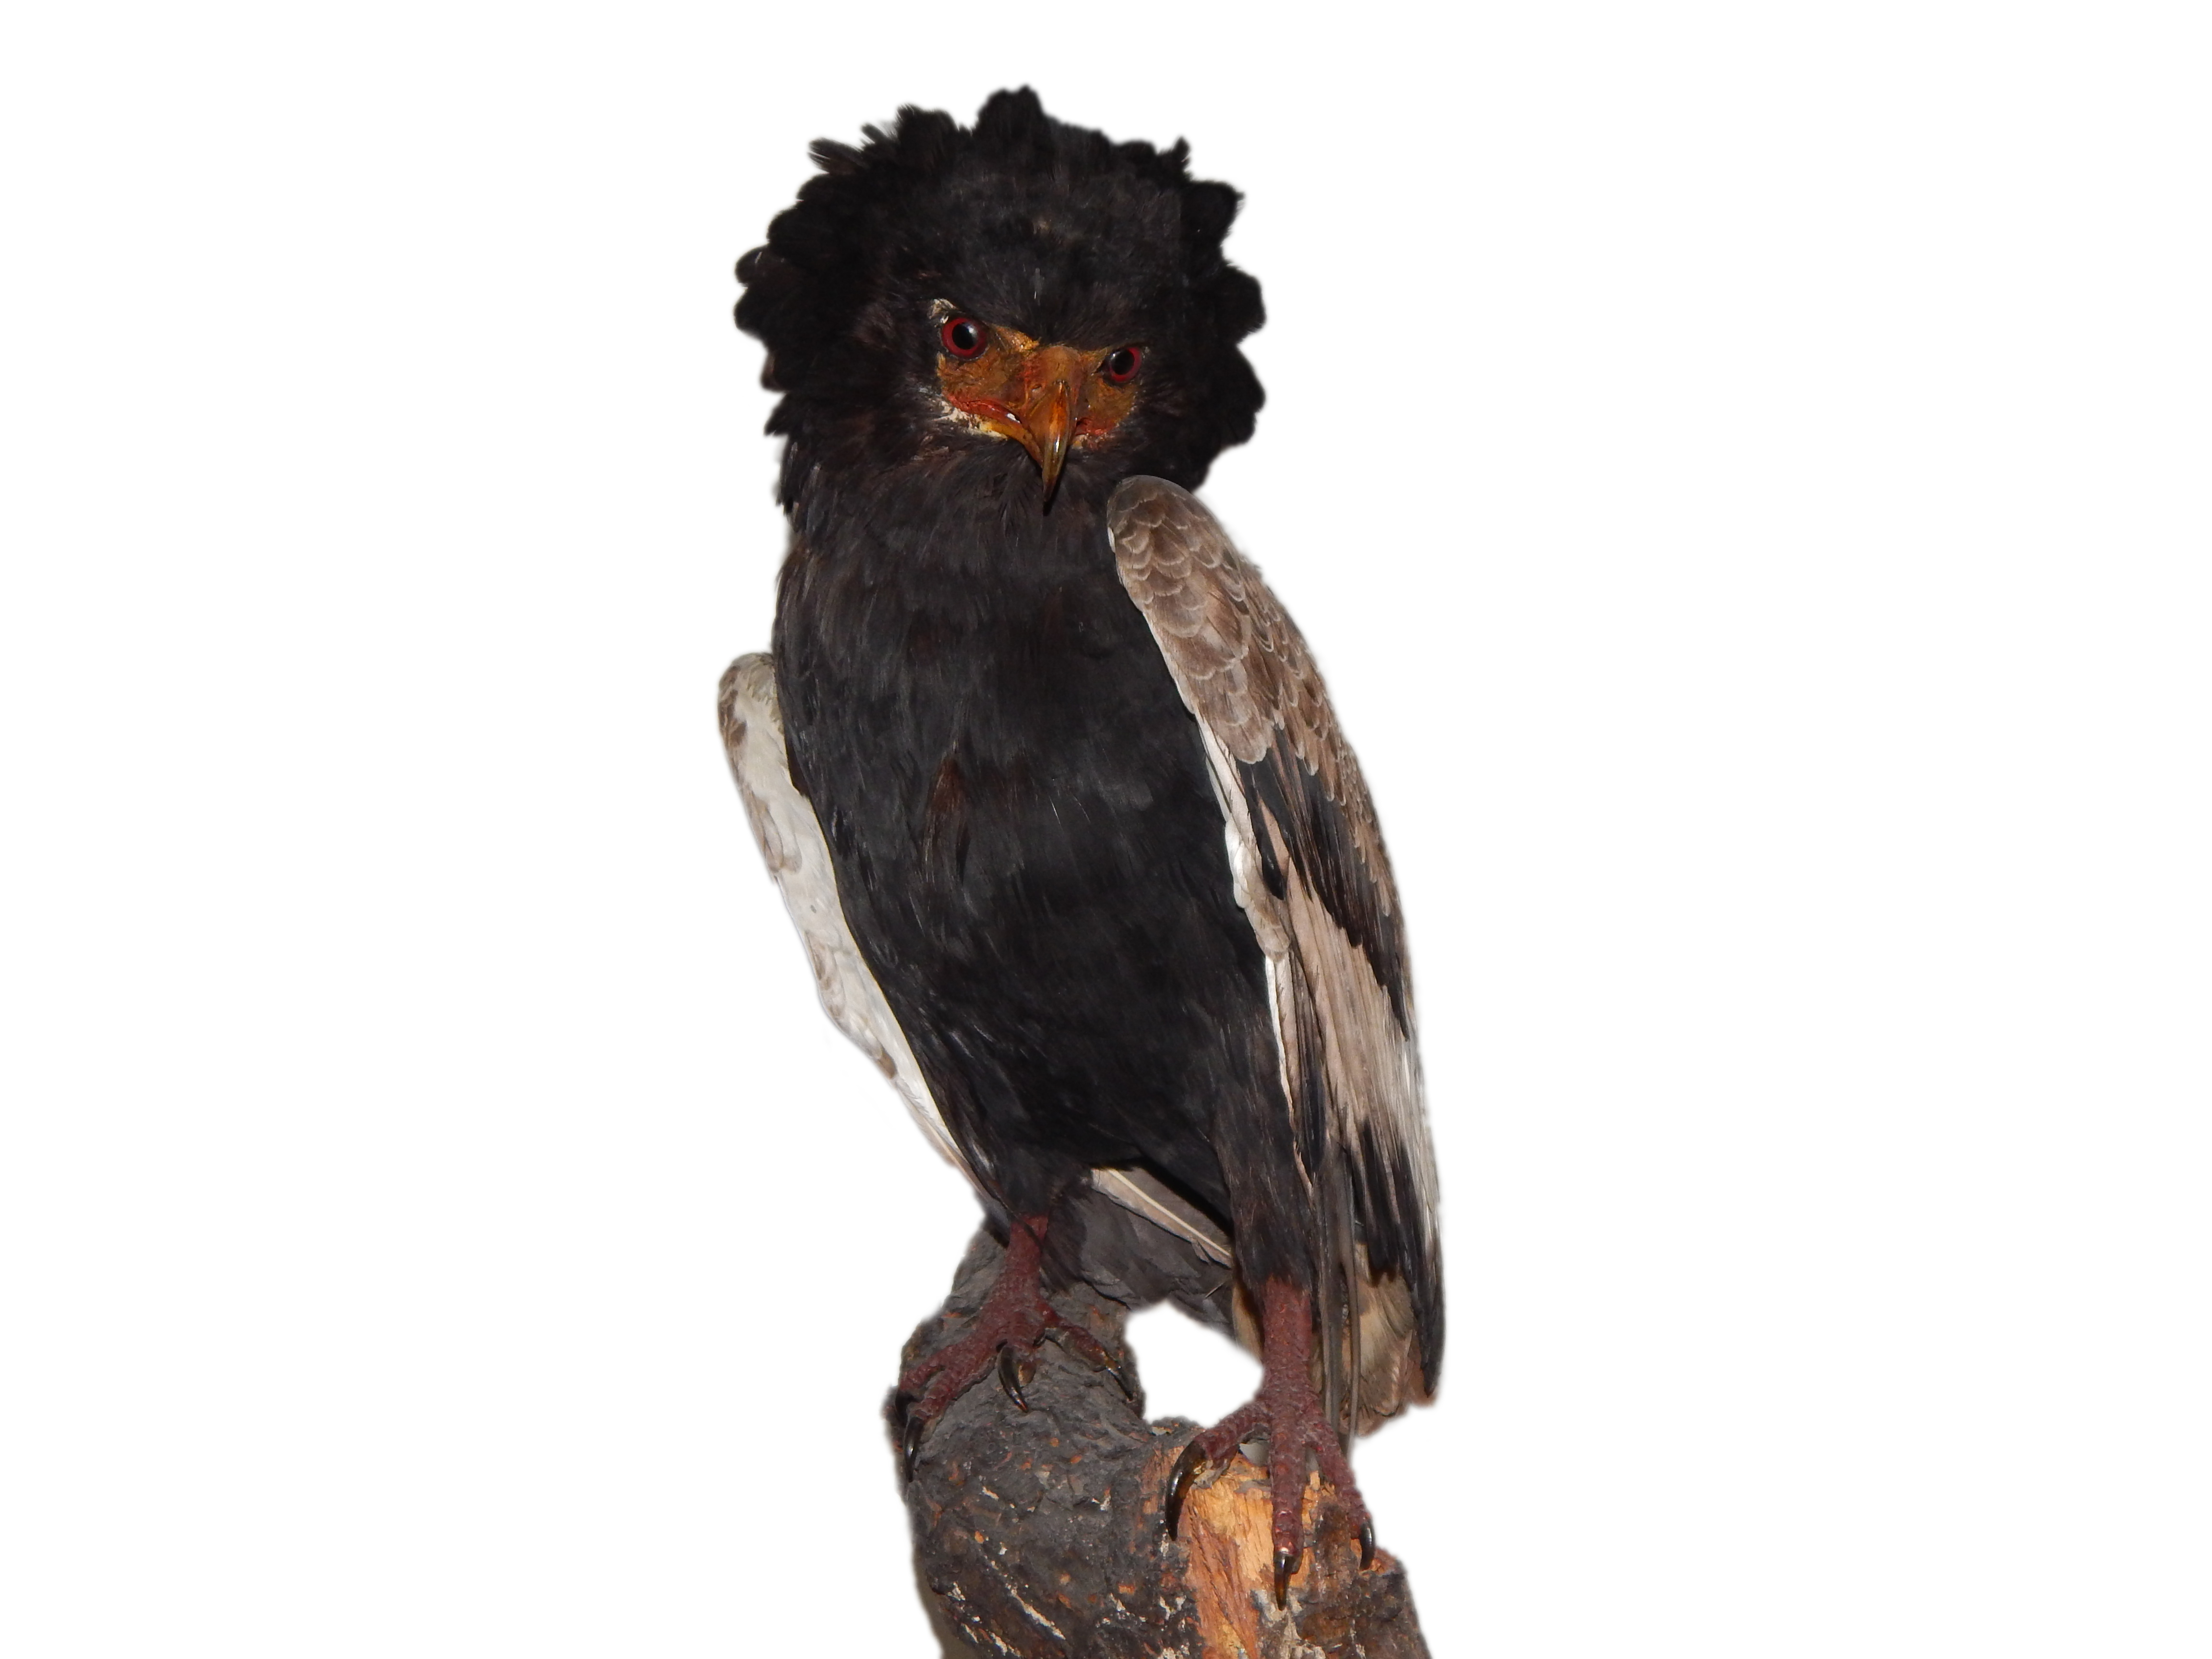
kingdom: Animalia
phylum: Chordata
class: Aves
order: Accipitriformes
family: Accipitridae
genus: Terathopius
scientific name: Terathopius ecaudatus
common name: Bateleur
